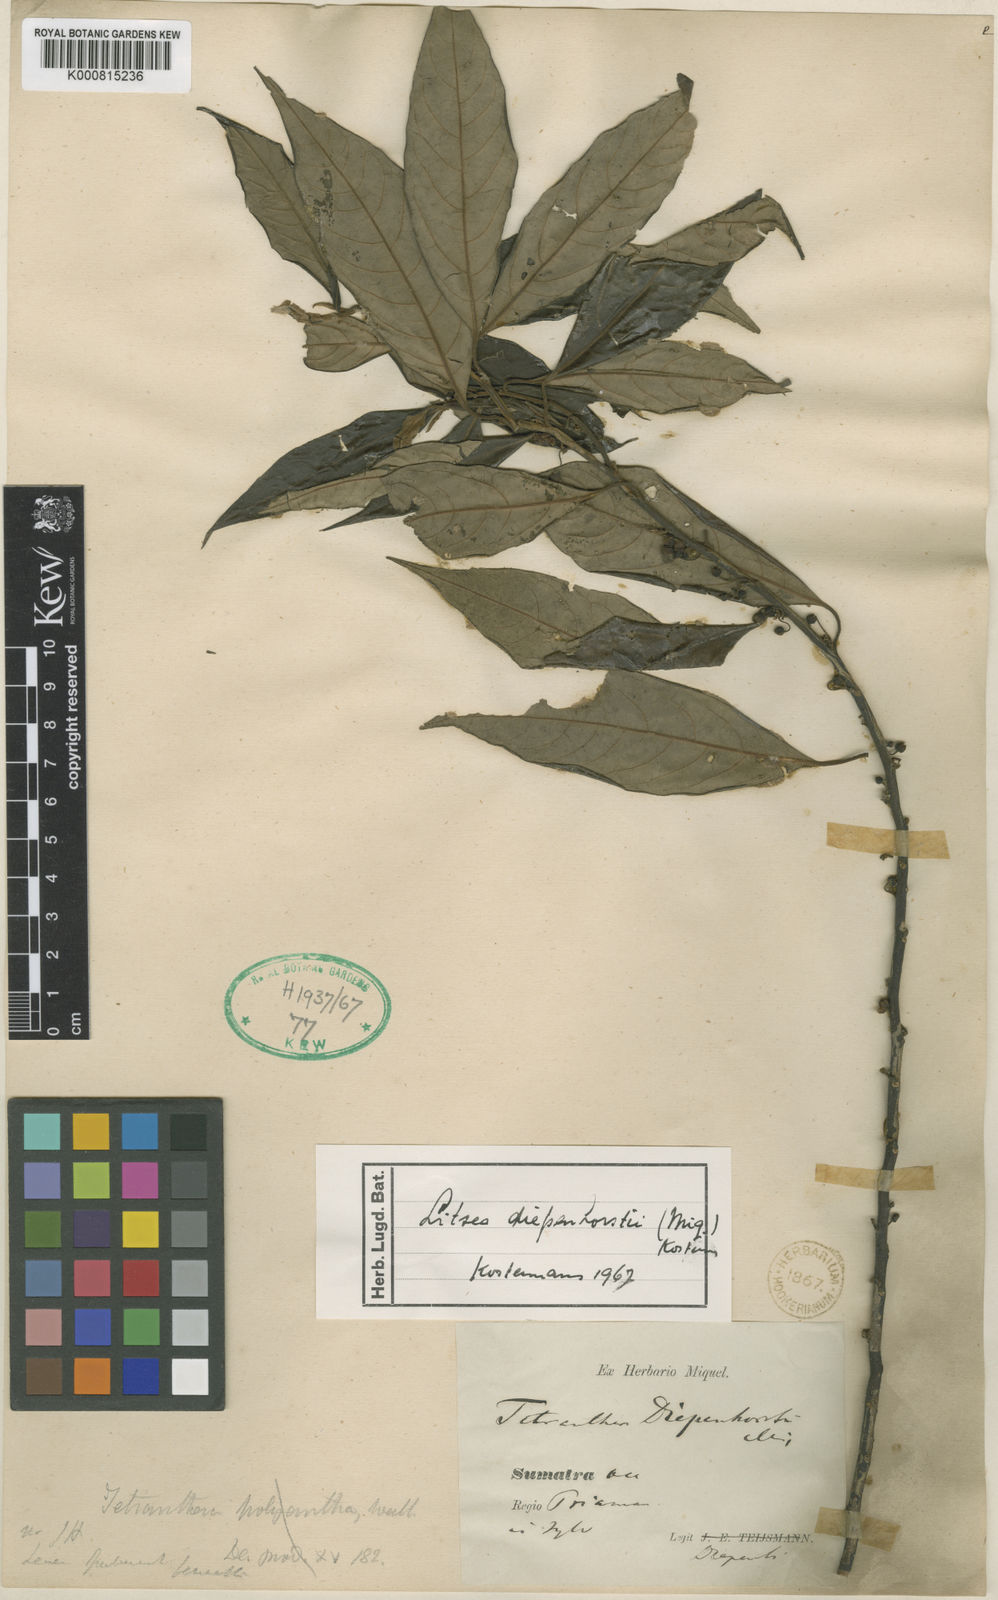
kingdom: Plantae
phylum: Tracheophyta
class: Magnoliopsida
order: Laurales
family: Lauraceae
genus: Litsea
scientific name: Litsea
